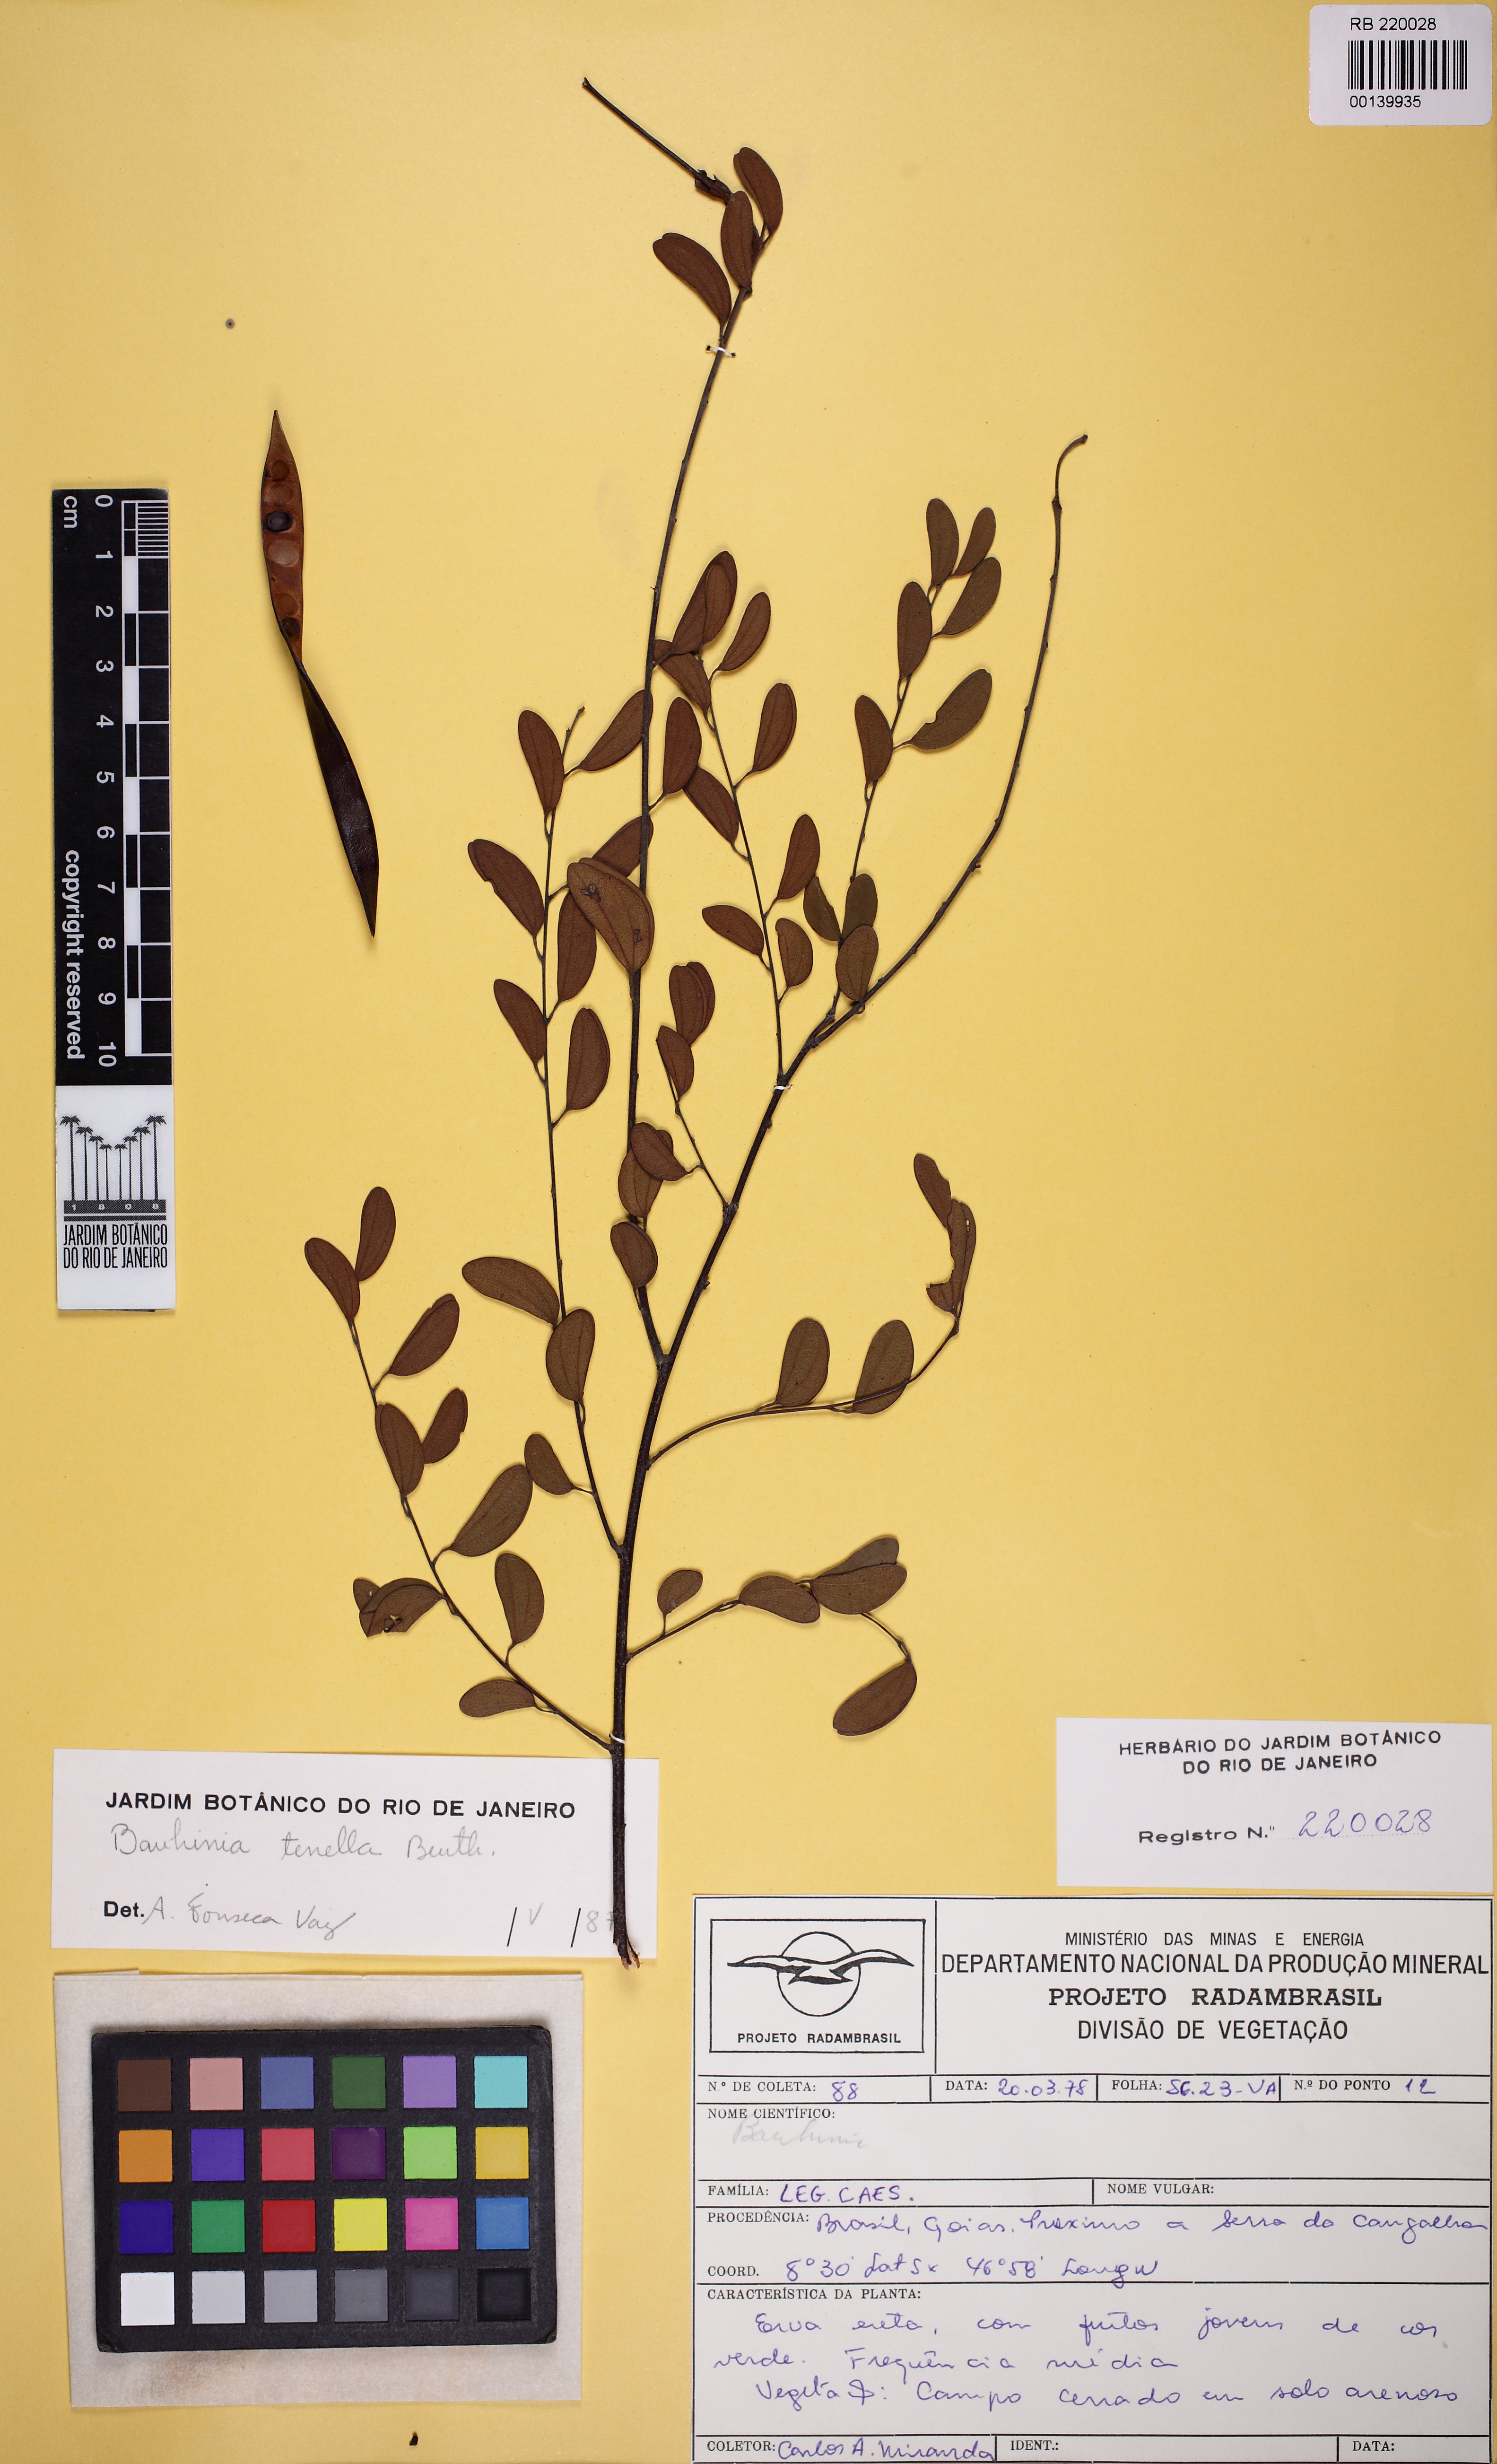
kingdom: Plantae
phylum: Tracheophyta
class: Magnoliopsida
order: Fabales
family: Fabaceae
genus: Bauhinia
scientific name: Bauhinia tenella
